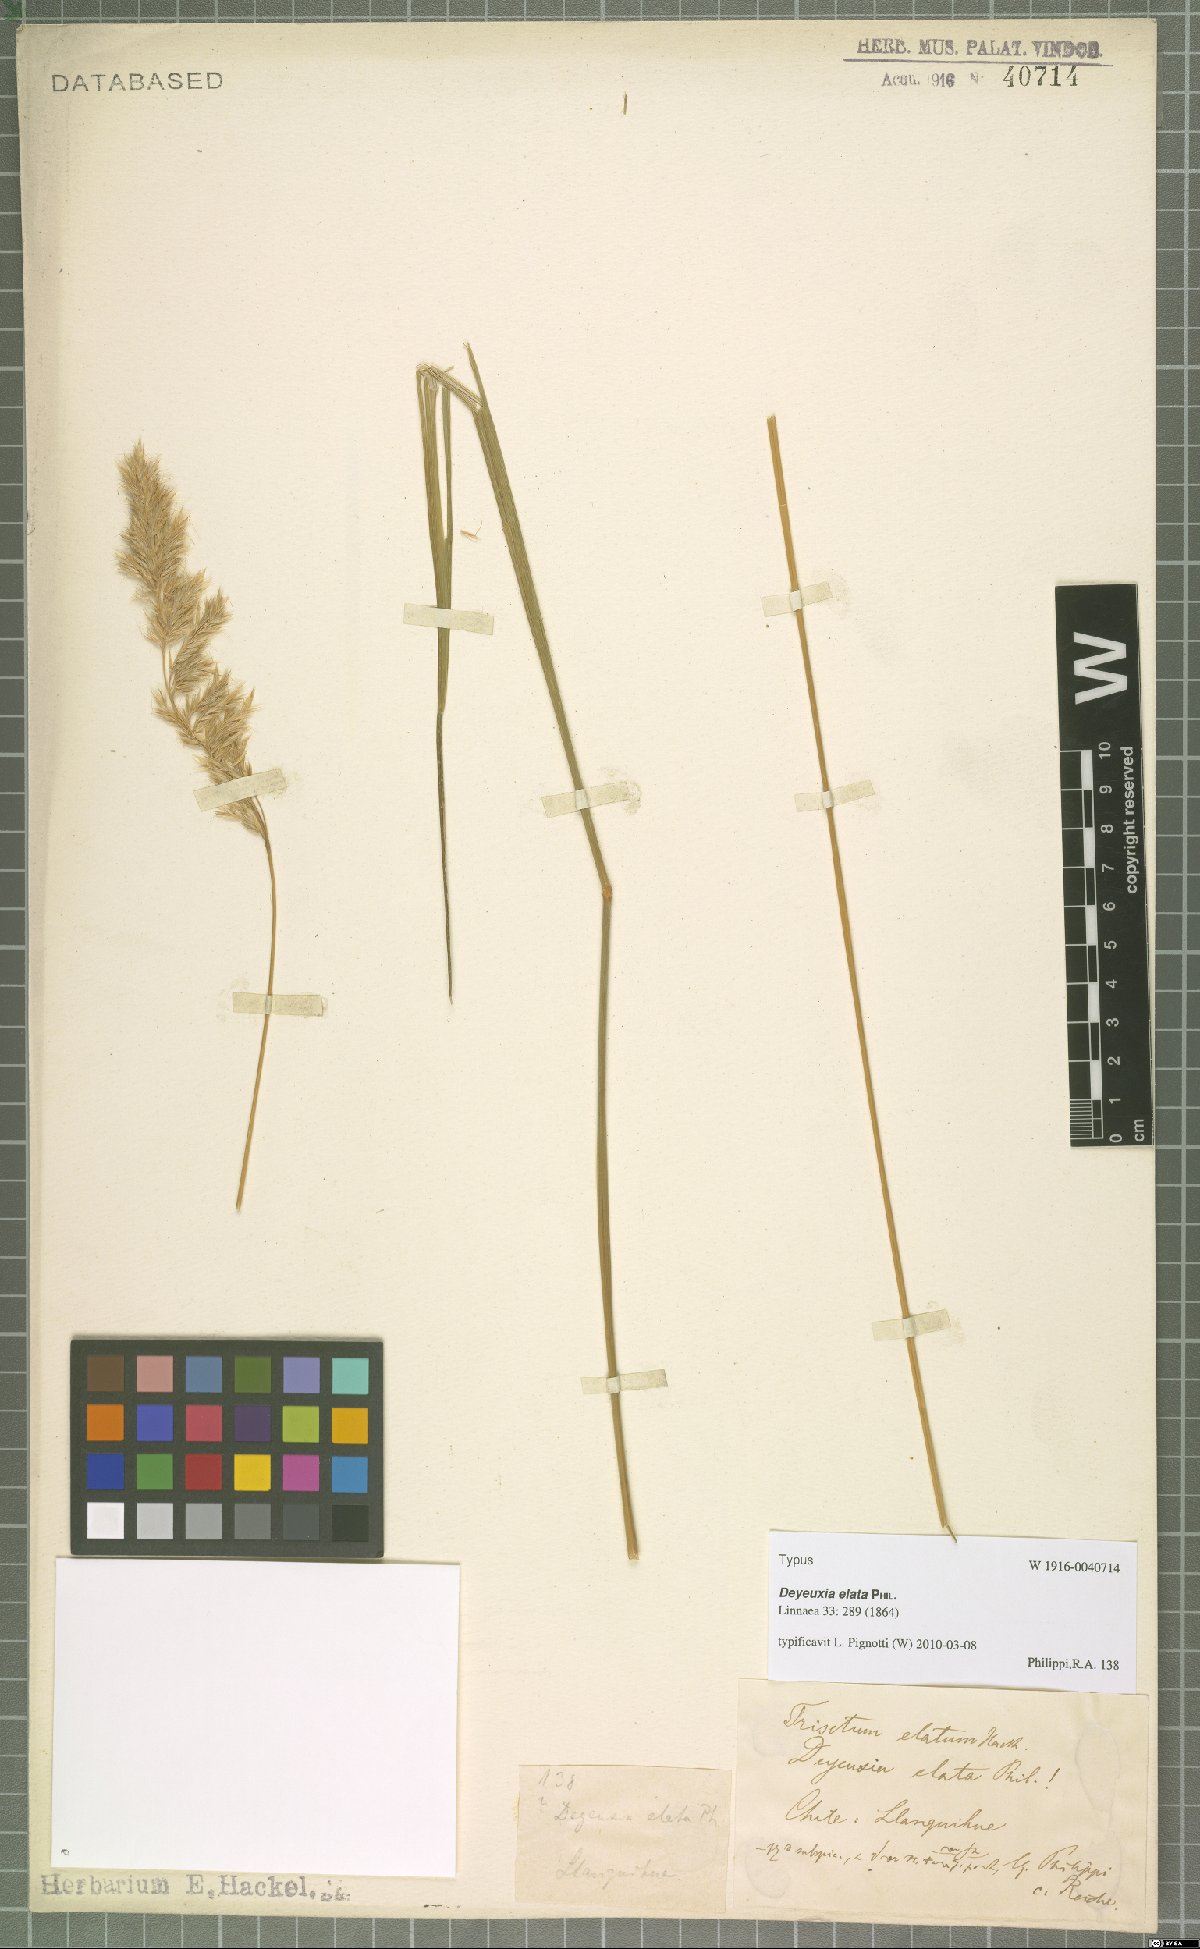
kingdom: Plantae
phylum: Tracheophyta
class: Liliopsida
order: Poales
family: Poaceae
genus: Calamagrostis
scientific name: Calamagrostis Deyeuxia elata
